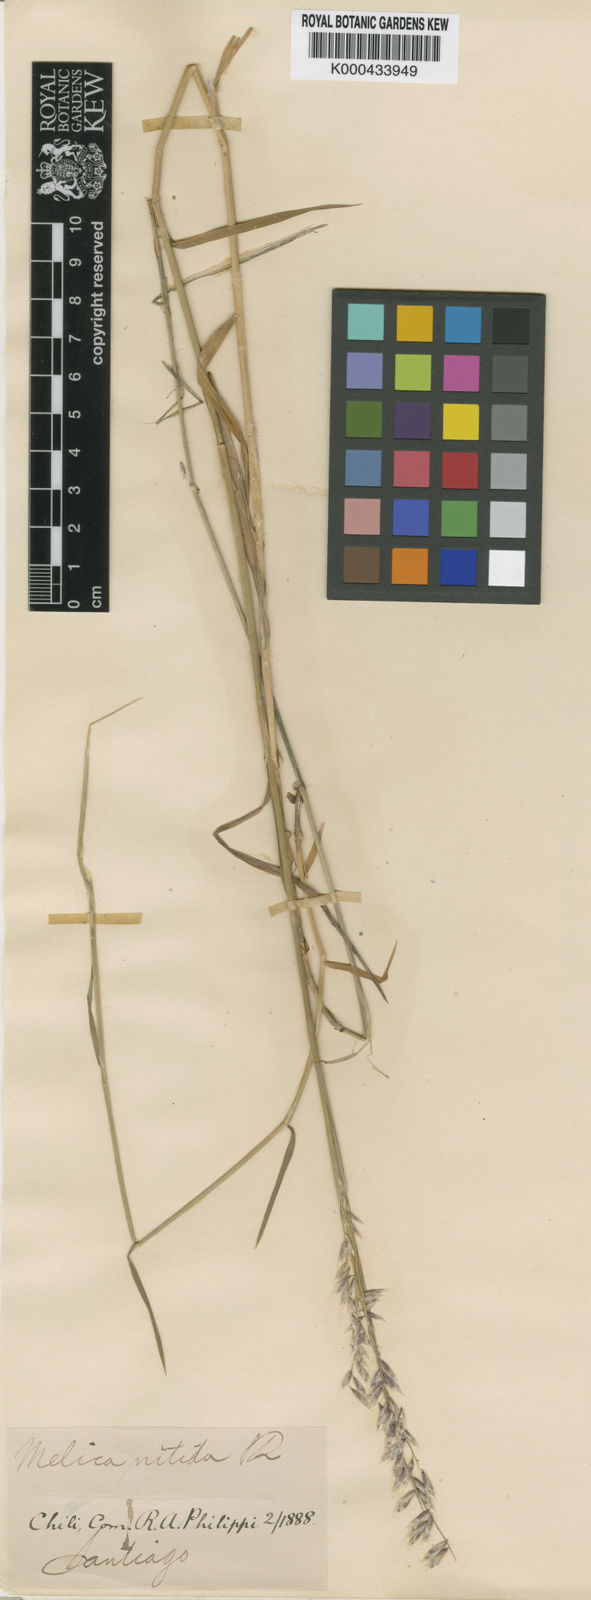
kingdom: Plantae
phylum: Tracheophyta
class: Liliopsida
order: Poales
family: Poaceae
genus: Melica
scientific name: Melica argentata
